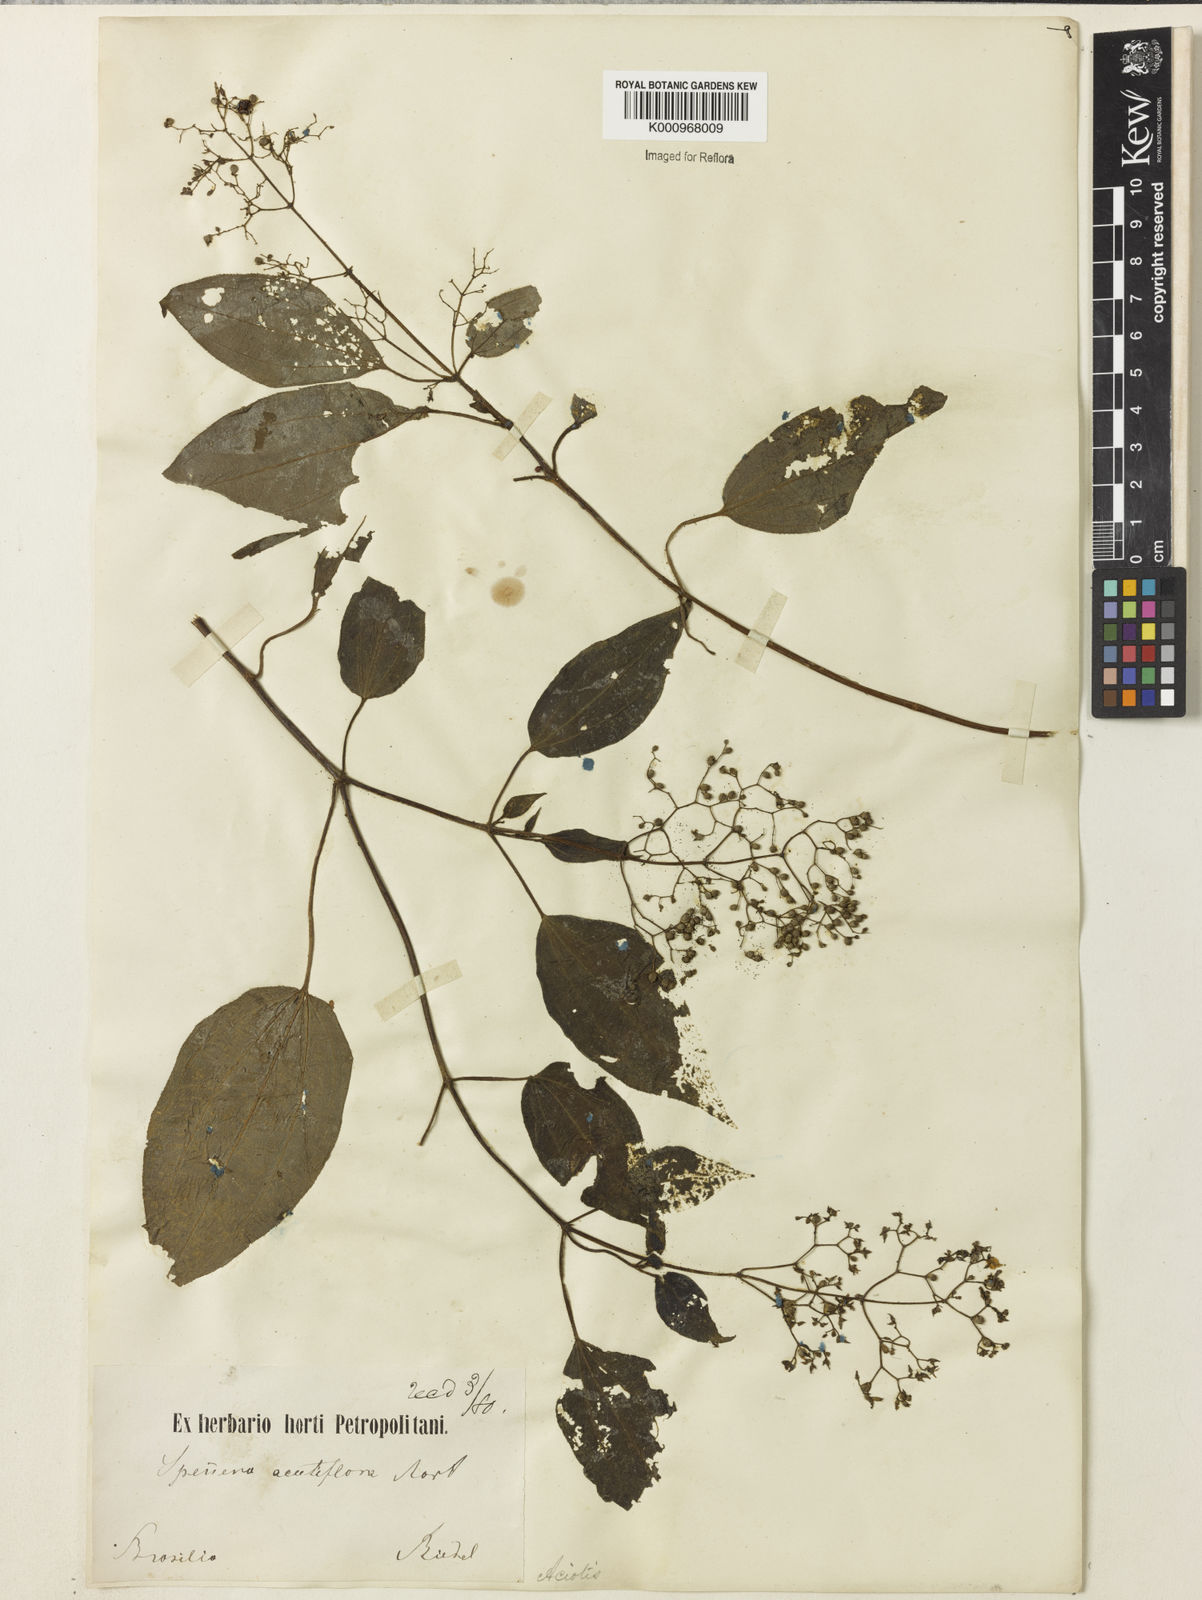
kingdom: Plantae
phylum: Tracheophyta
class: Magnoliopsida
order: Myrtales
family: Melastomataceae
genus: Aciotis
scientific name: Aciotis indecora
